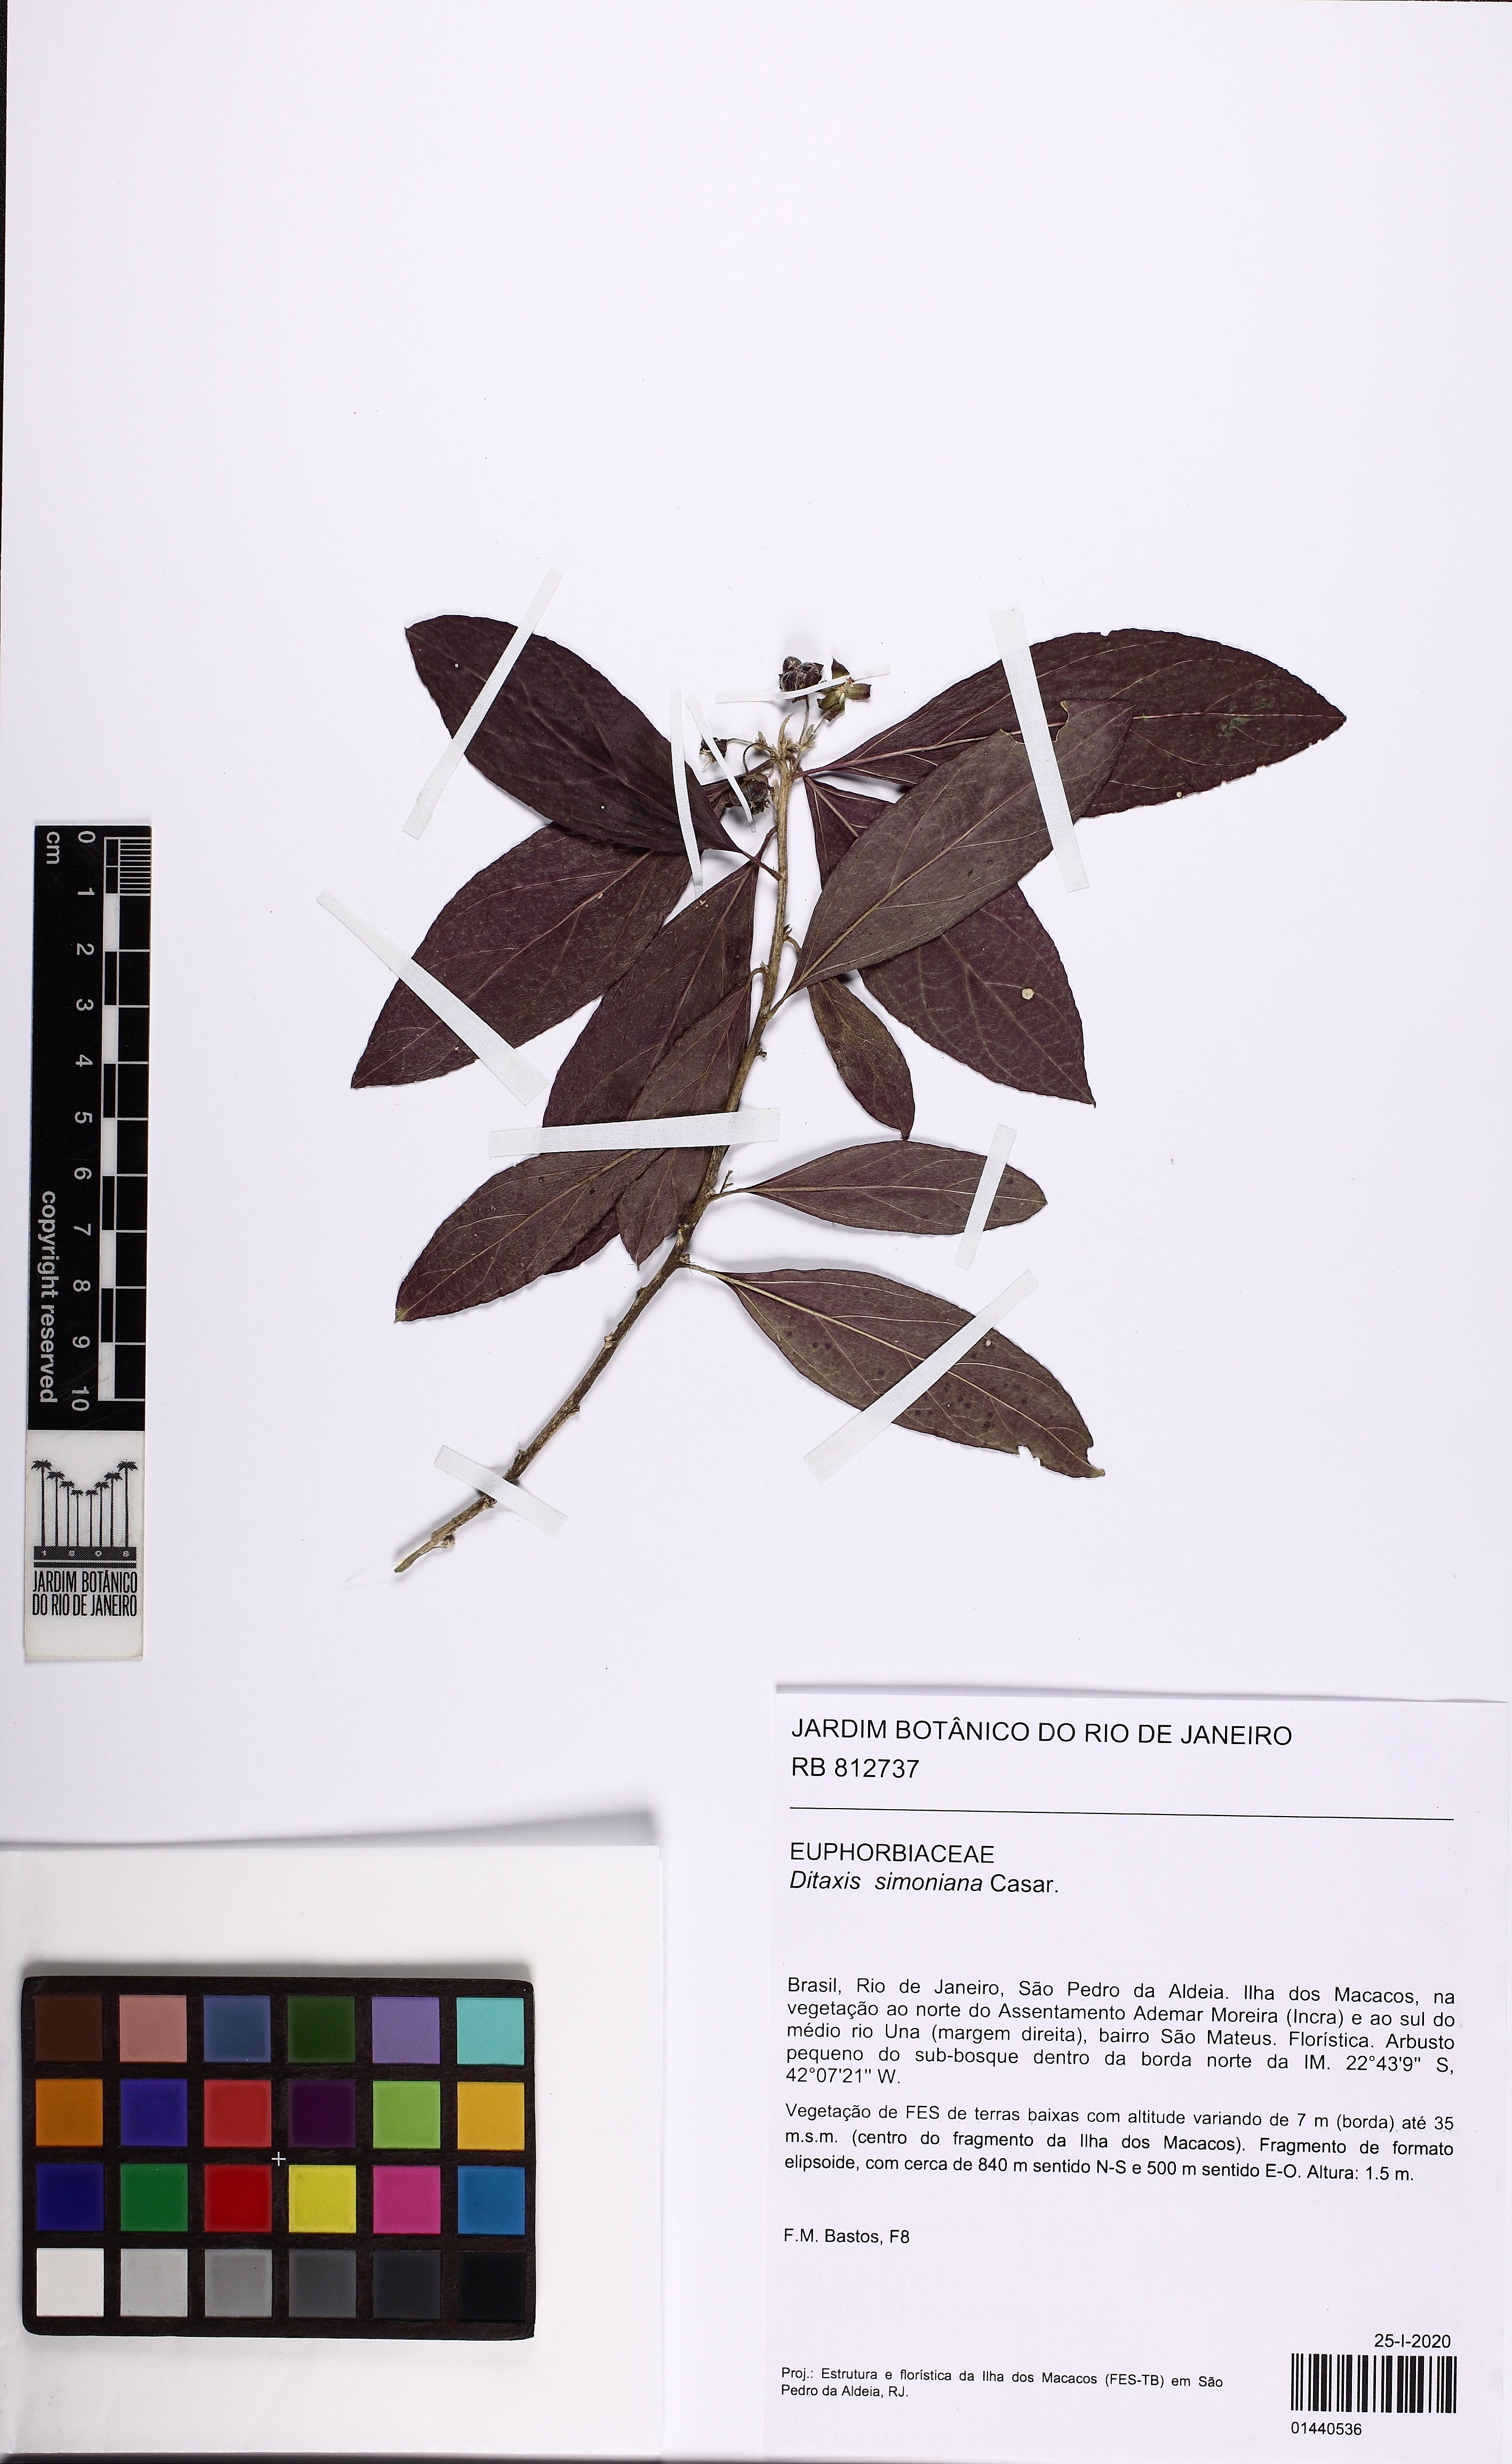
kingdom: Plantae
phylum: Tracheophyta
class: Magnoliopsida
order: Malpighiales
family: Euphorbiaceae
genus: Ditaxis
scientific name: Ditaxis simoniana
